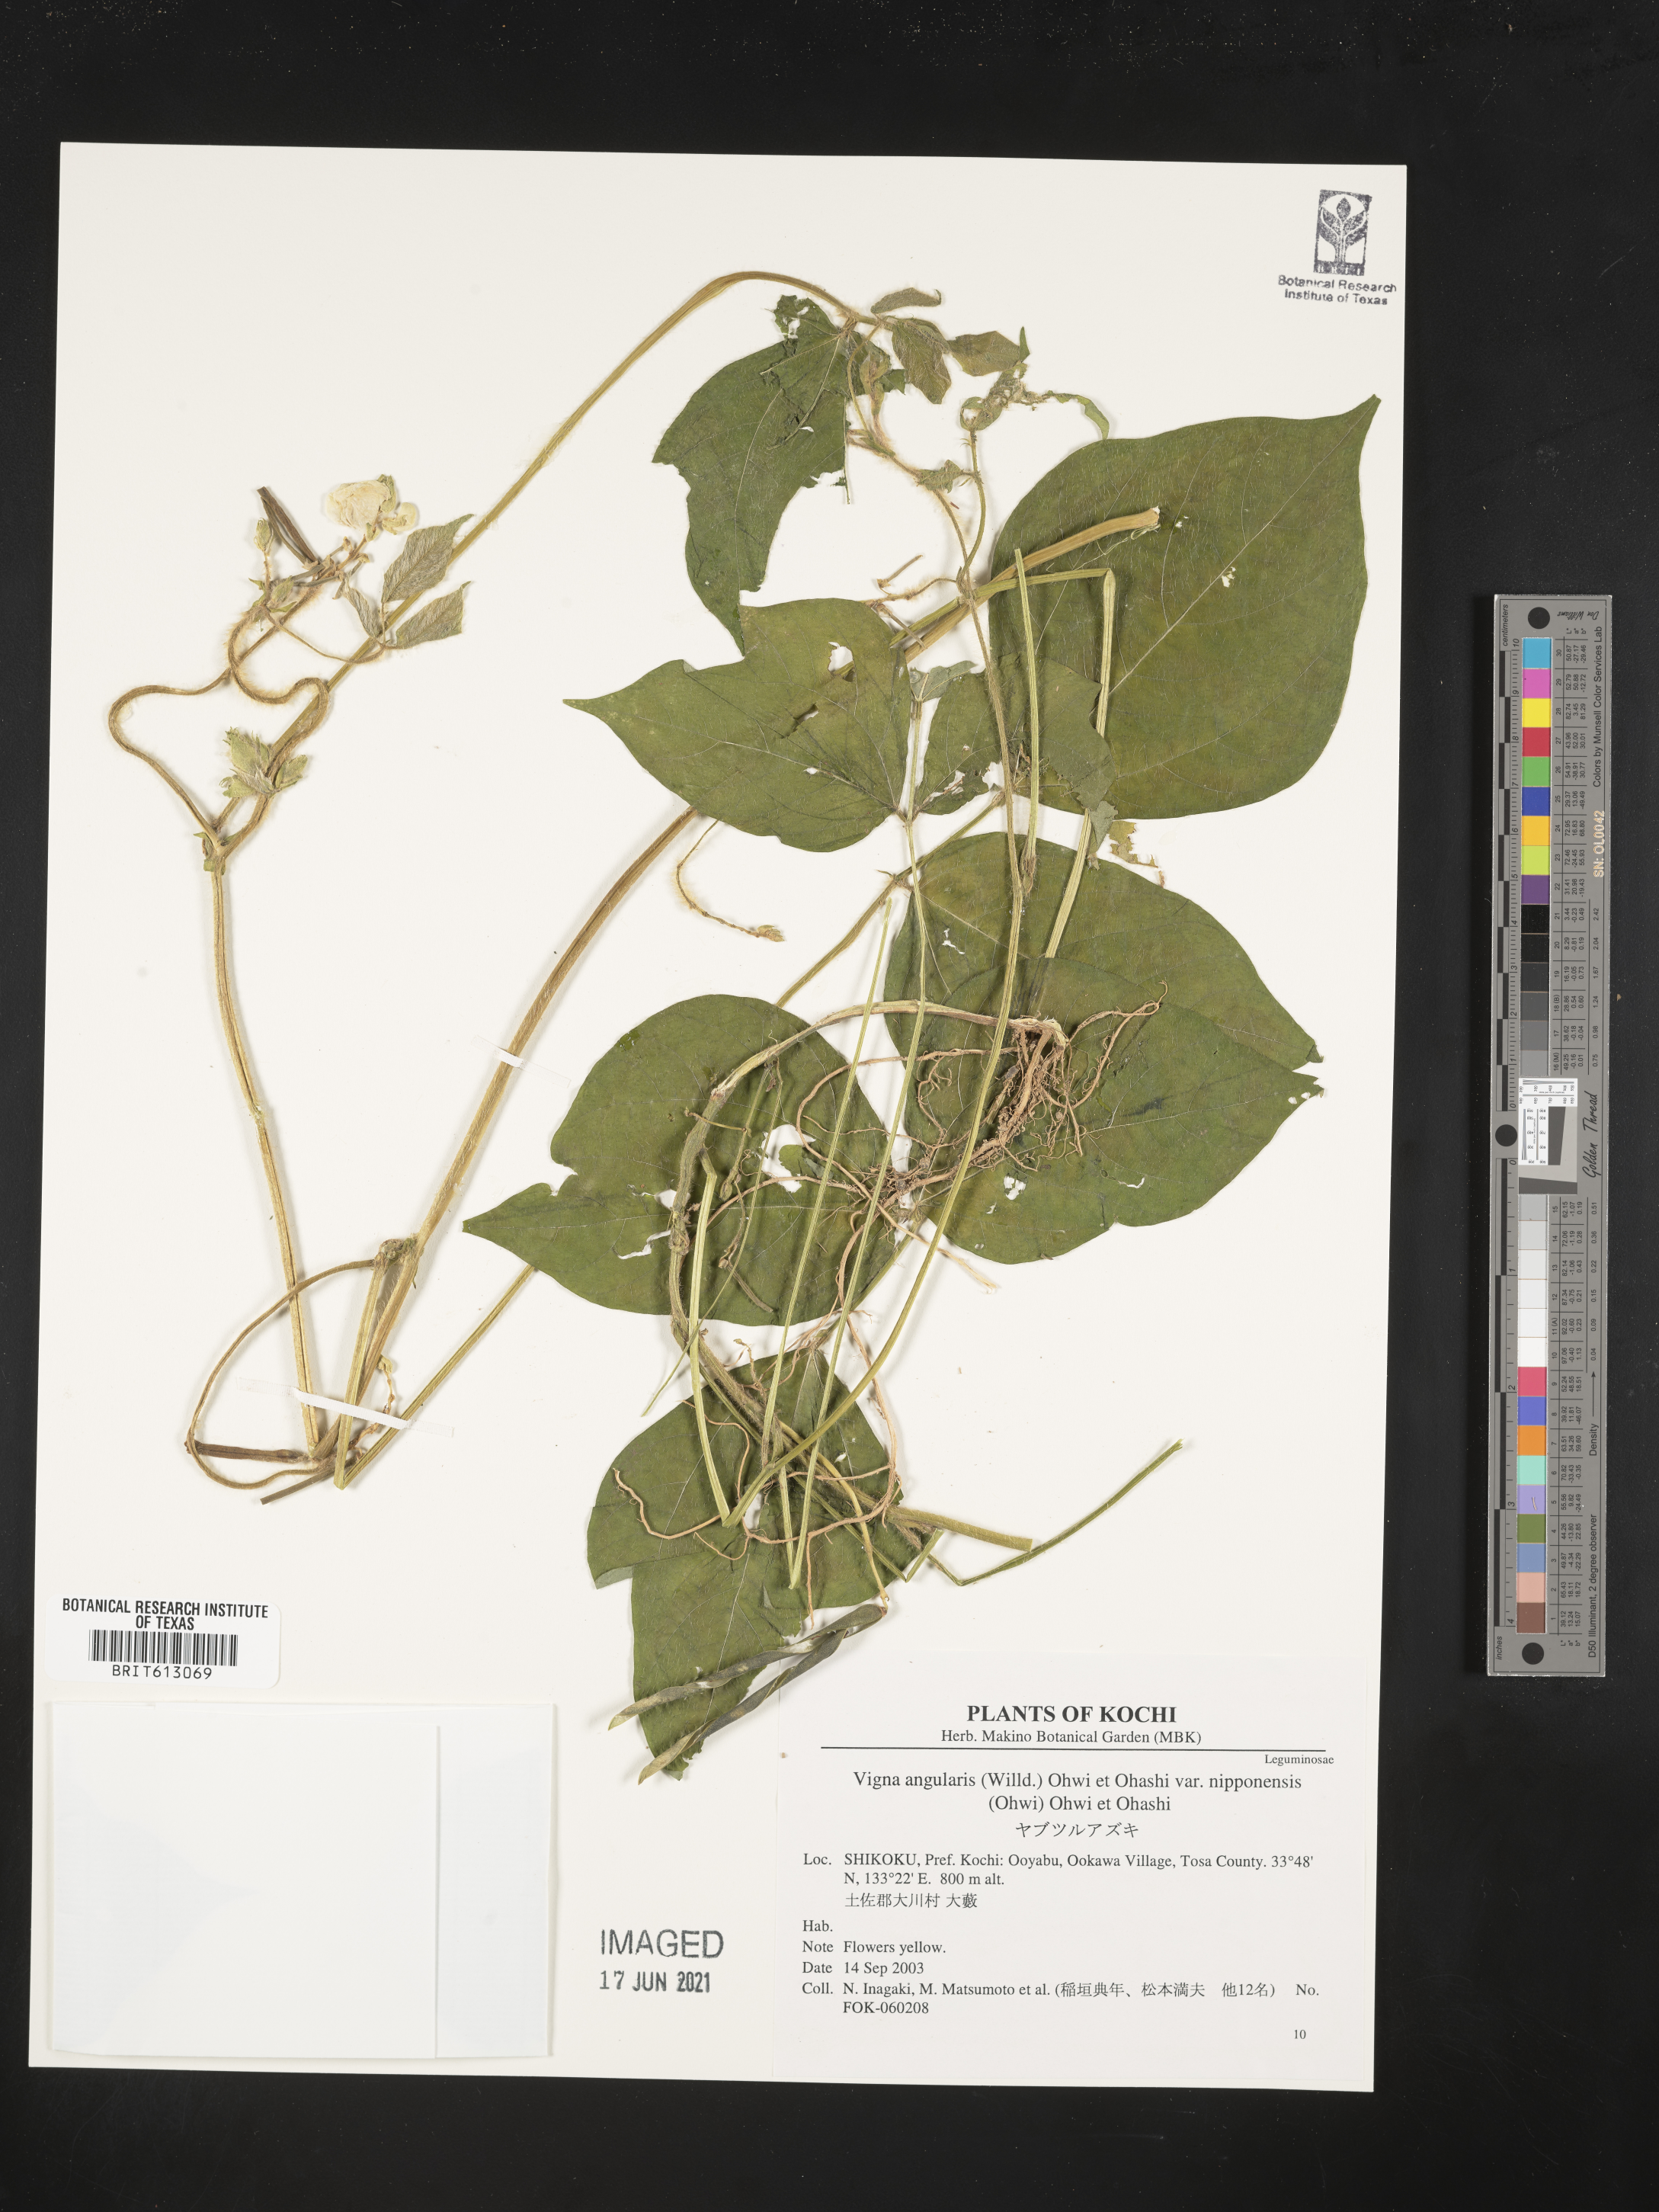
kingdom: Plantae
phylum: Tracheophyta
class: Magnoliopsida
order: Fabales
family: Fabaceae
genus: Vigna
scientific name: Vigna angularis
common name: Adzuki bean
